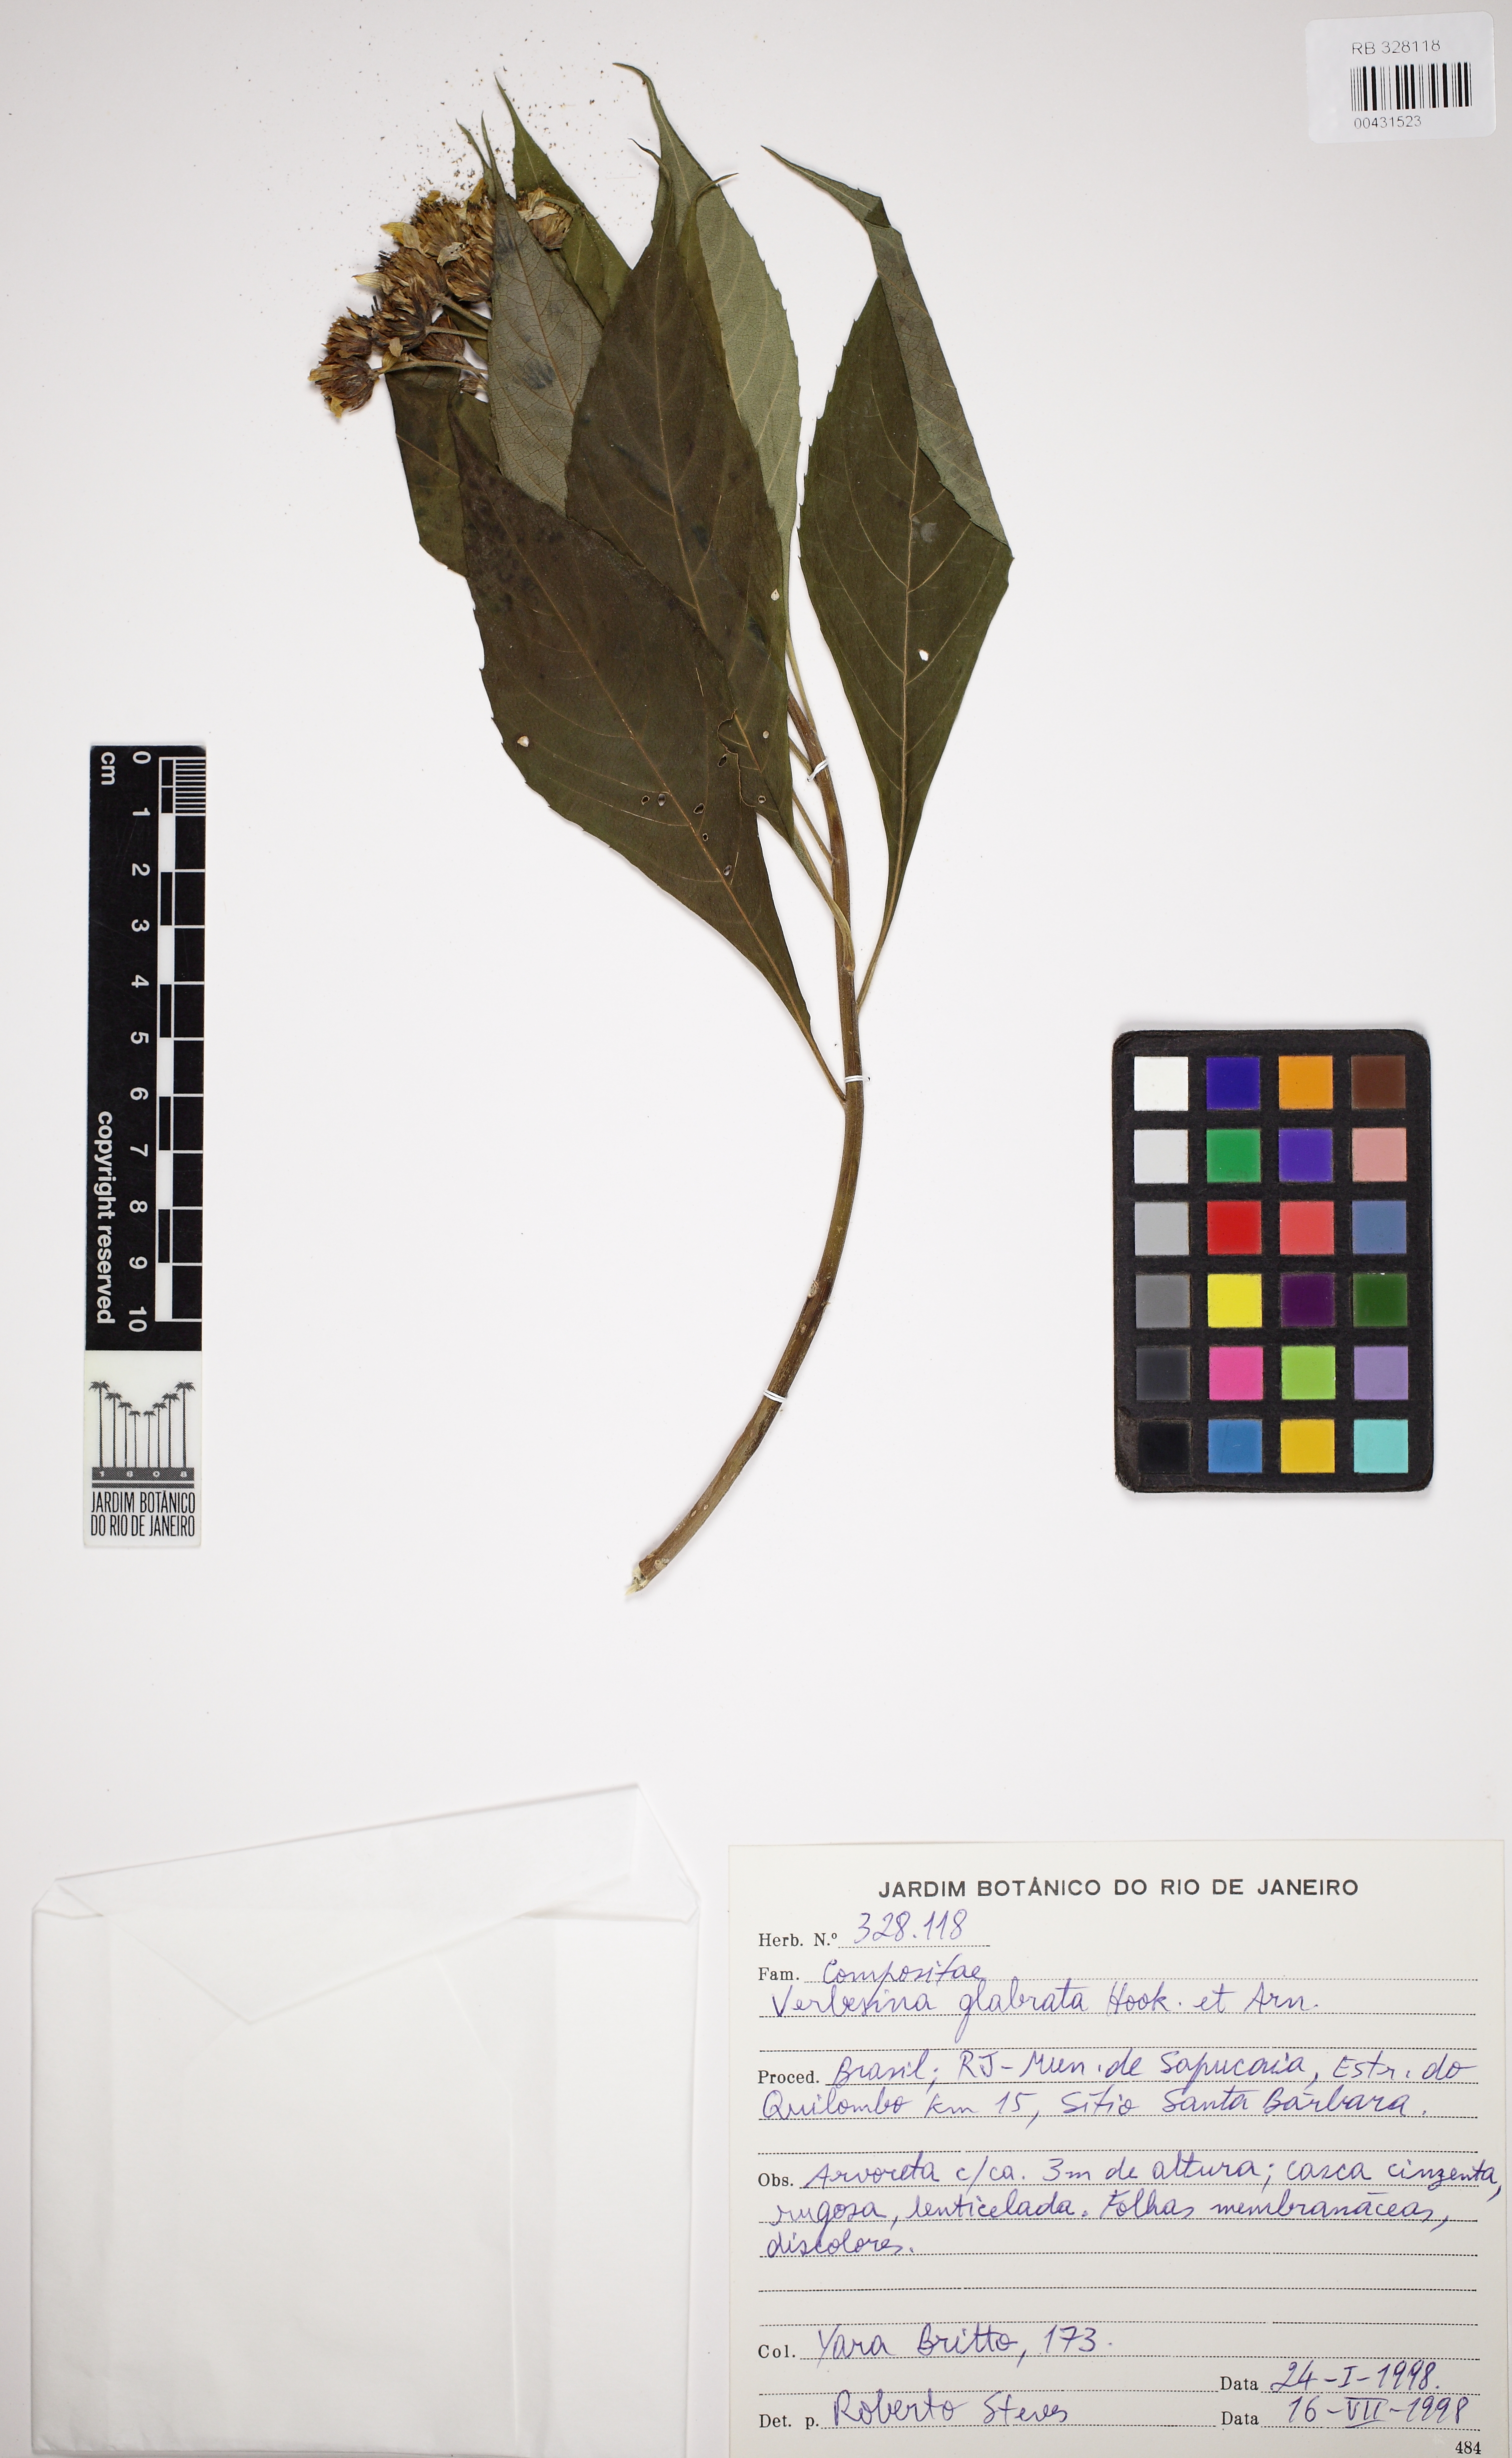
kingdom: Plantae
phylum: Tracheophyta
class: Magnoliopsida
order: Asterales
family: Asteraceae
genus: Verbesina
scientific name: Verbesina glabrata
